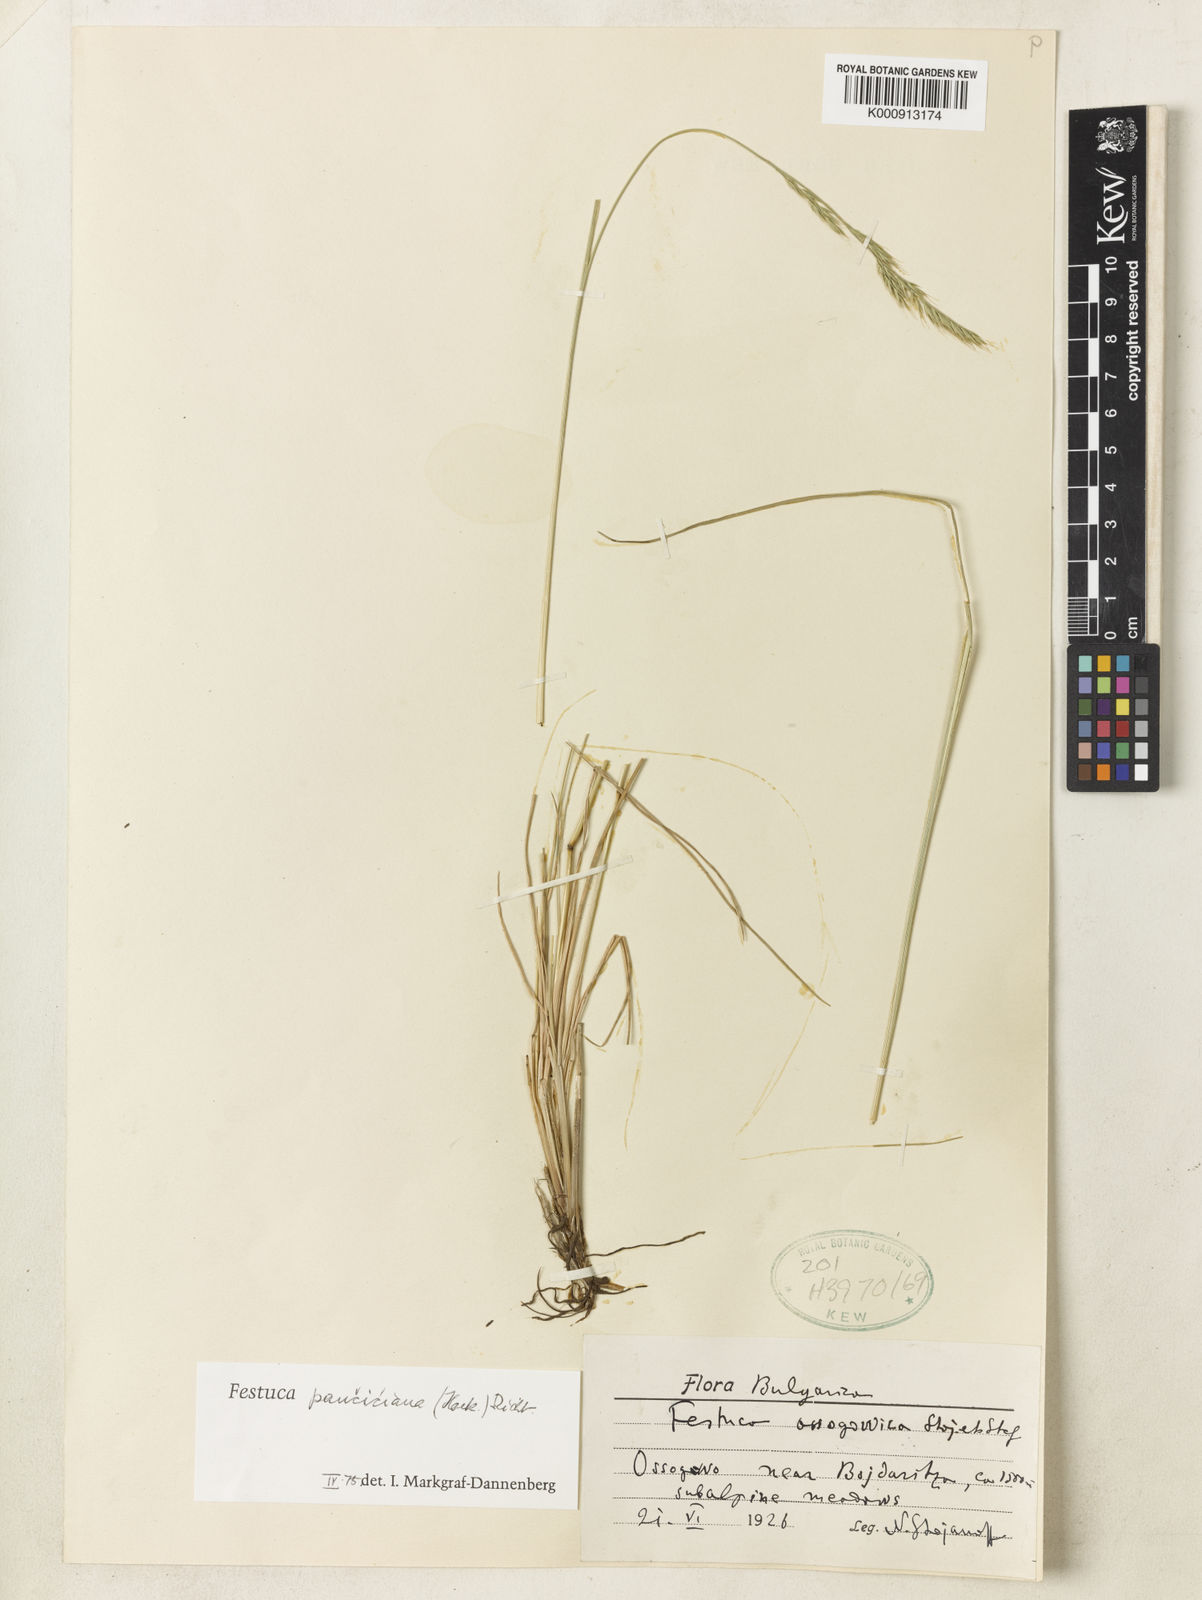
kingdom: Plantae
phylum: Tracheophyta
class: Liliopsida
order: Poales
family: Poaceae
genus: Festuca
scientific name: Festuca panciciana
